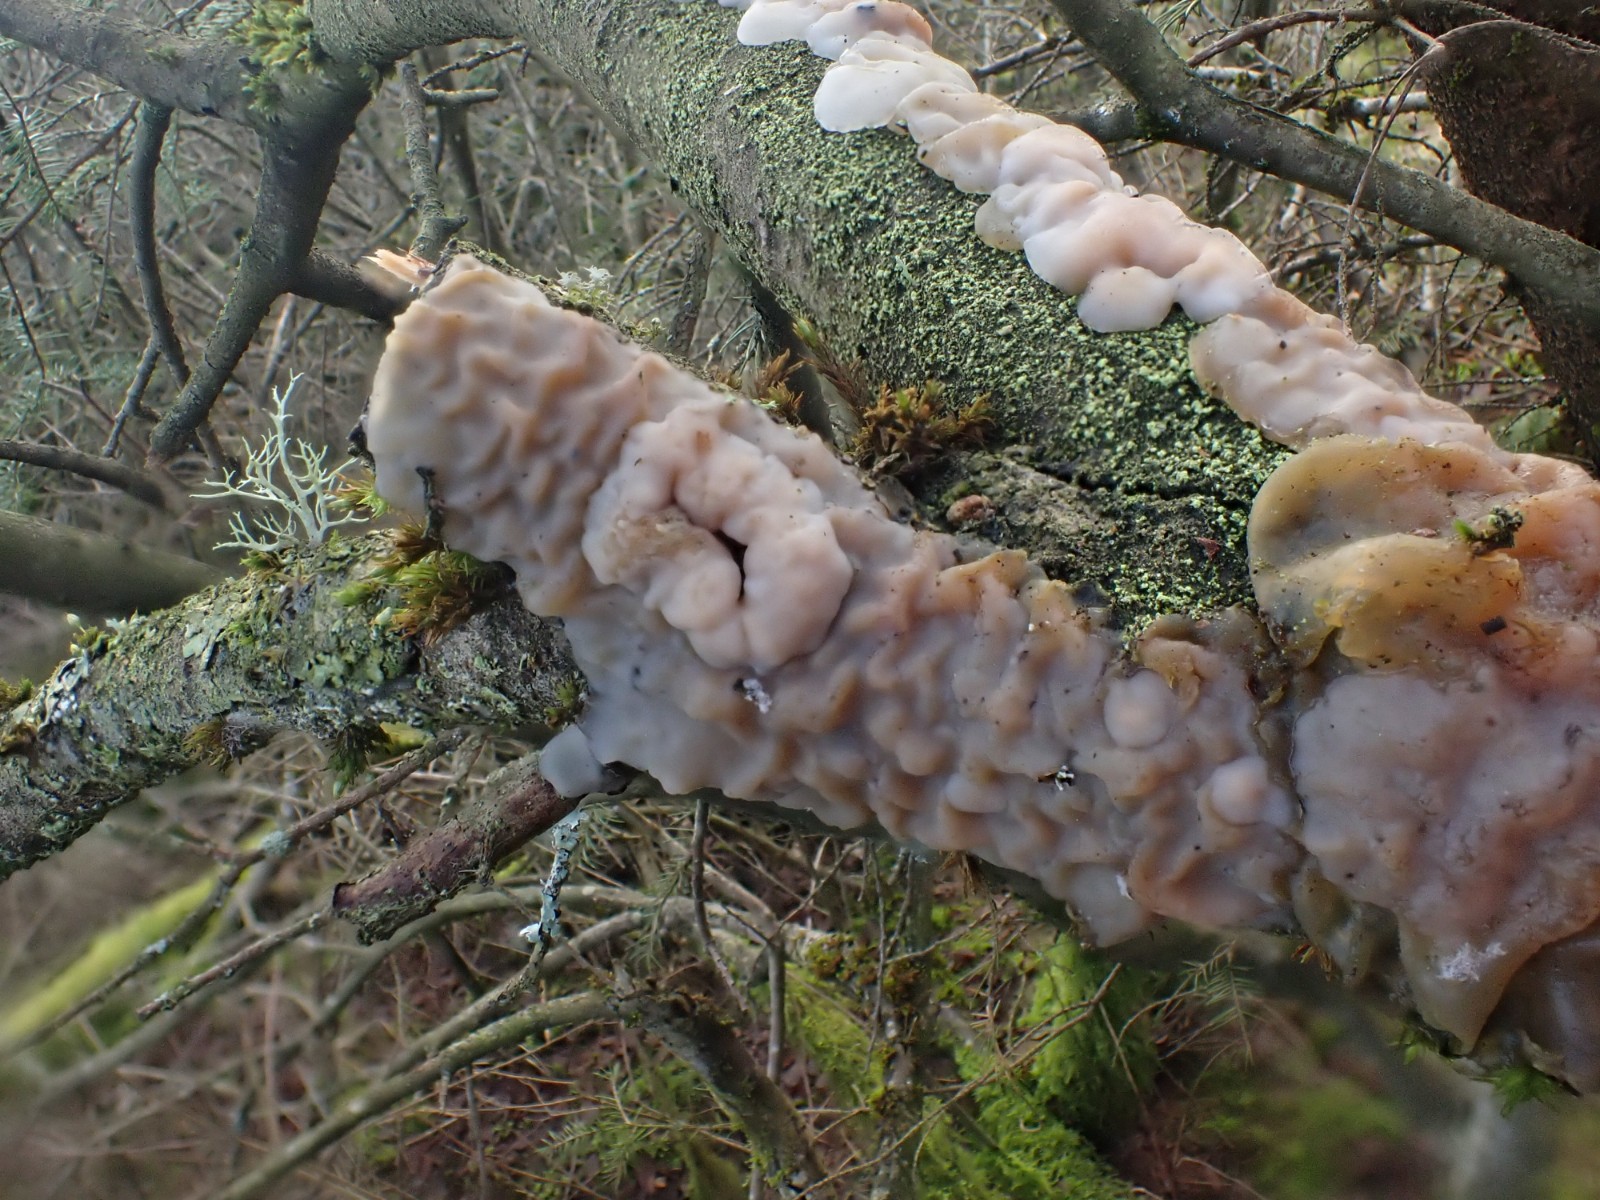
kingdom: Fungi
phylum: Basidiomycota
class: Agaricomycetes
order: Auriculariales
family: Auriculariaceae
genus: Exidia
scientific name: Exidia thuretiana
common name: hvidlig bævretop
